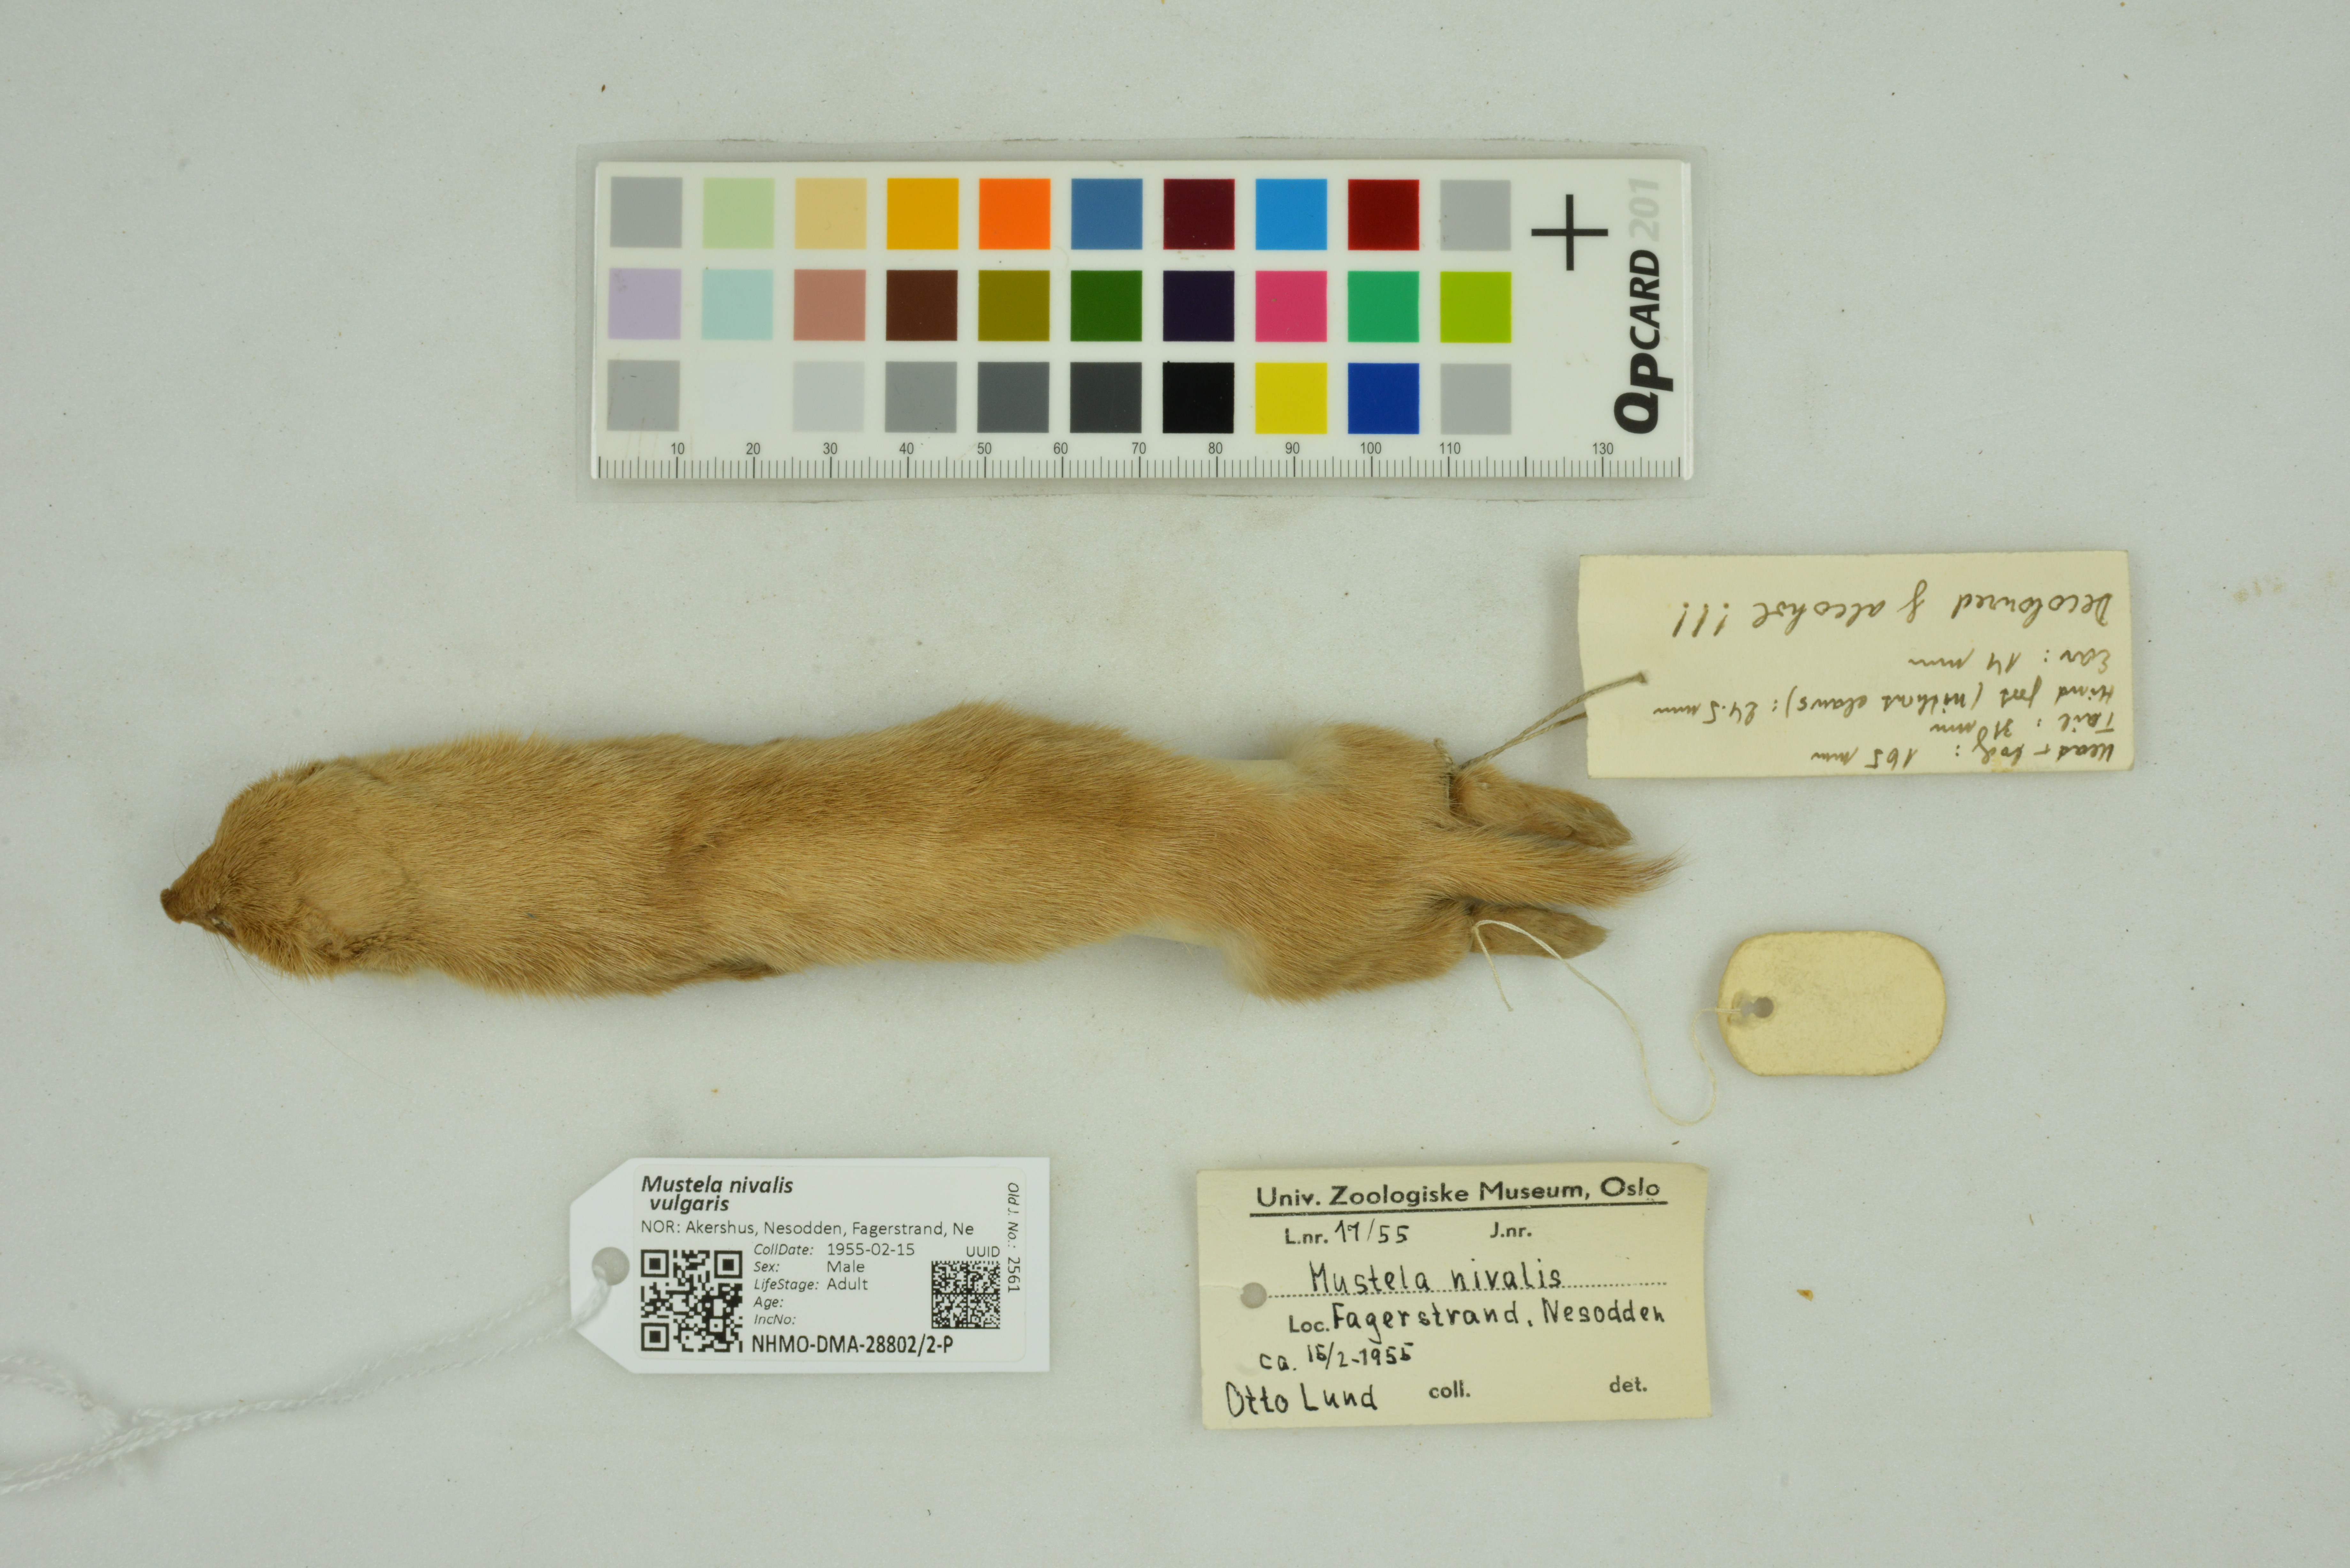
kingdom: Animalia
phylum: Chordata
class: Mammalia
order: Carnivora
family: Mustelidae
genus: Mustela
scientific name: Mustela nivalis
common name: Least weasel
